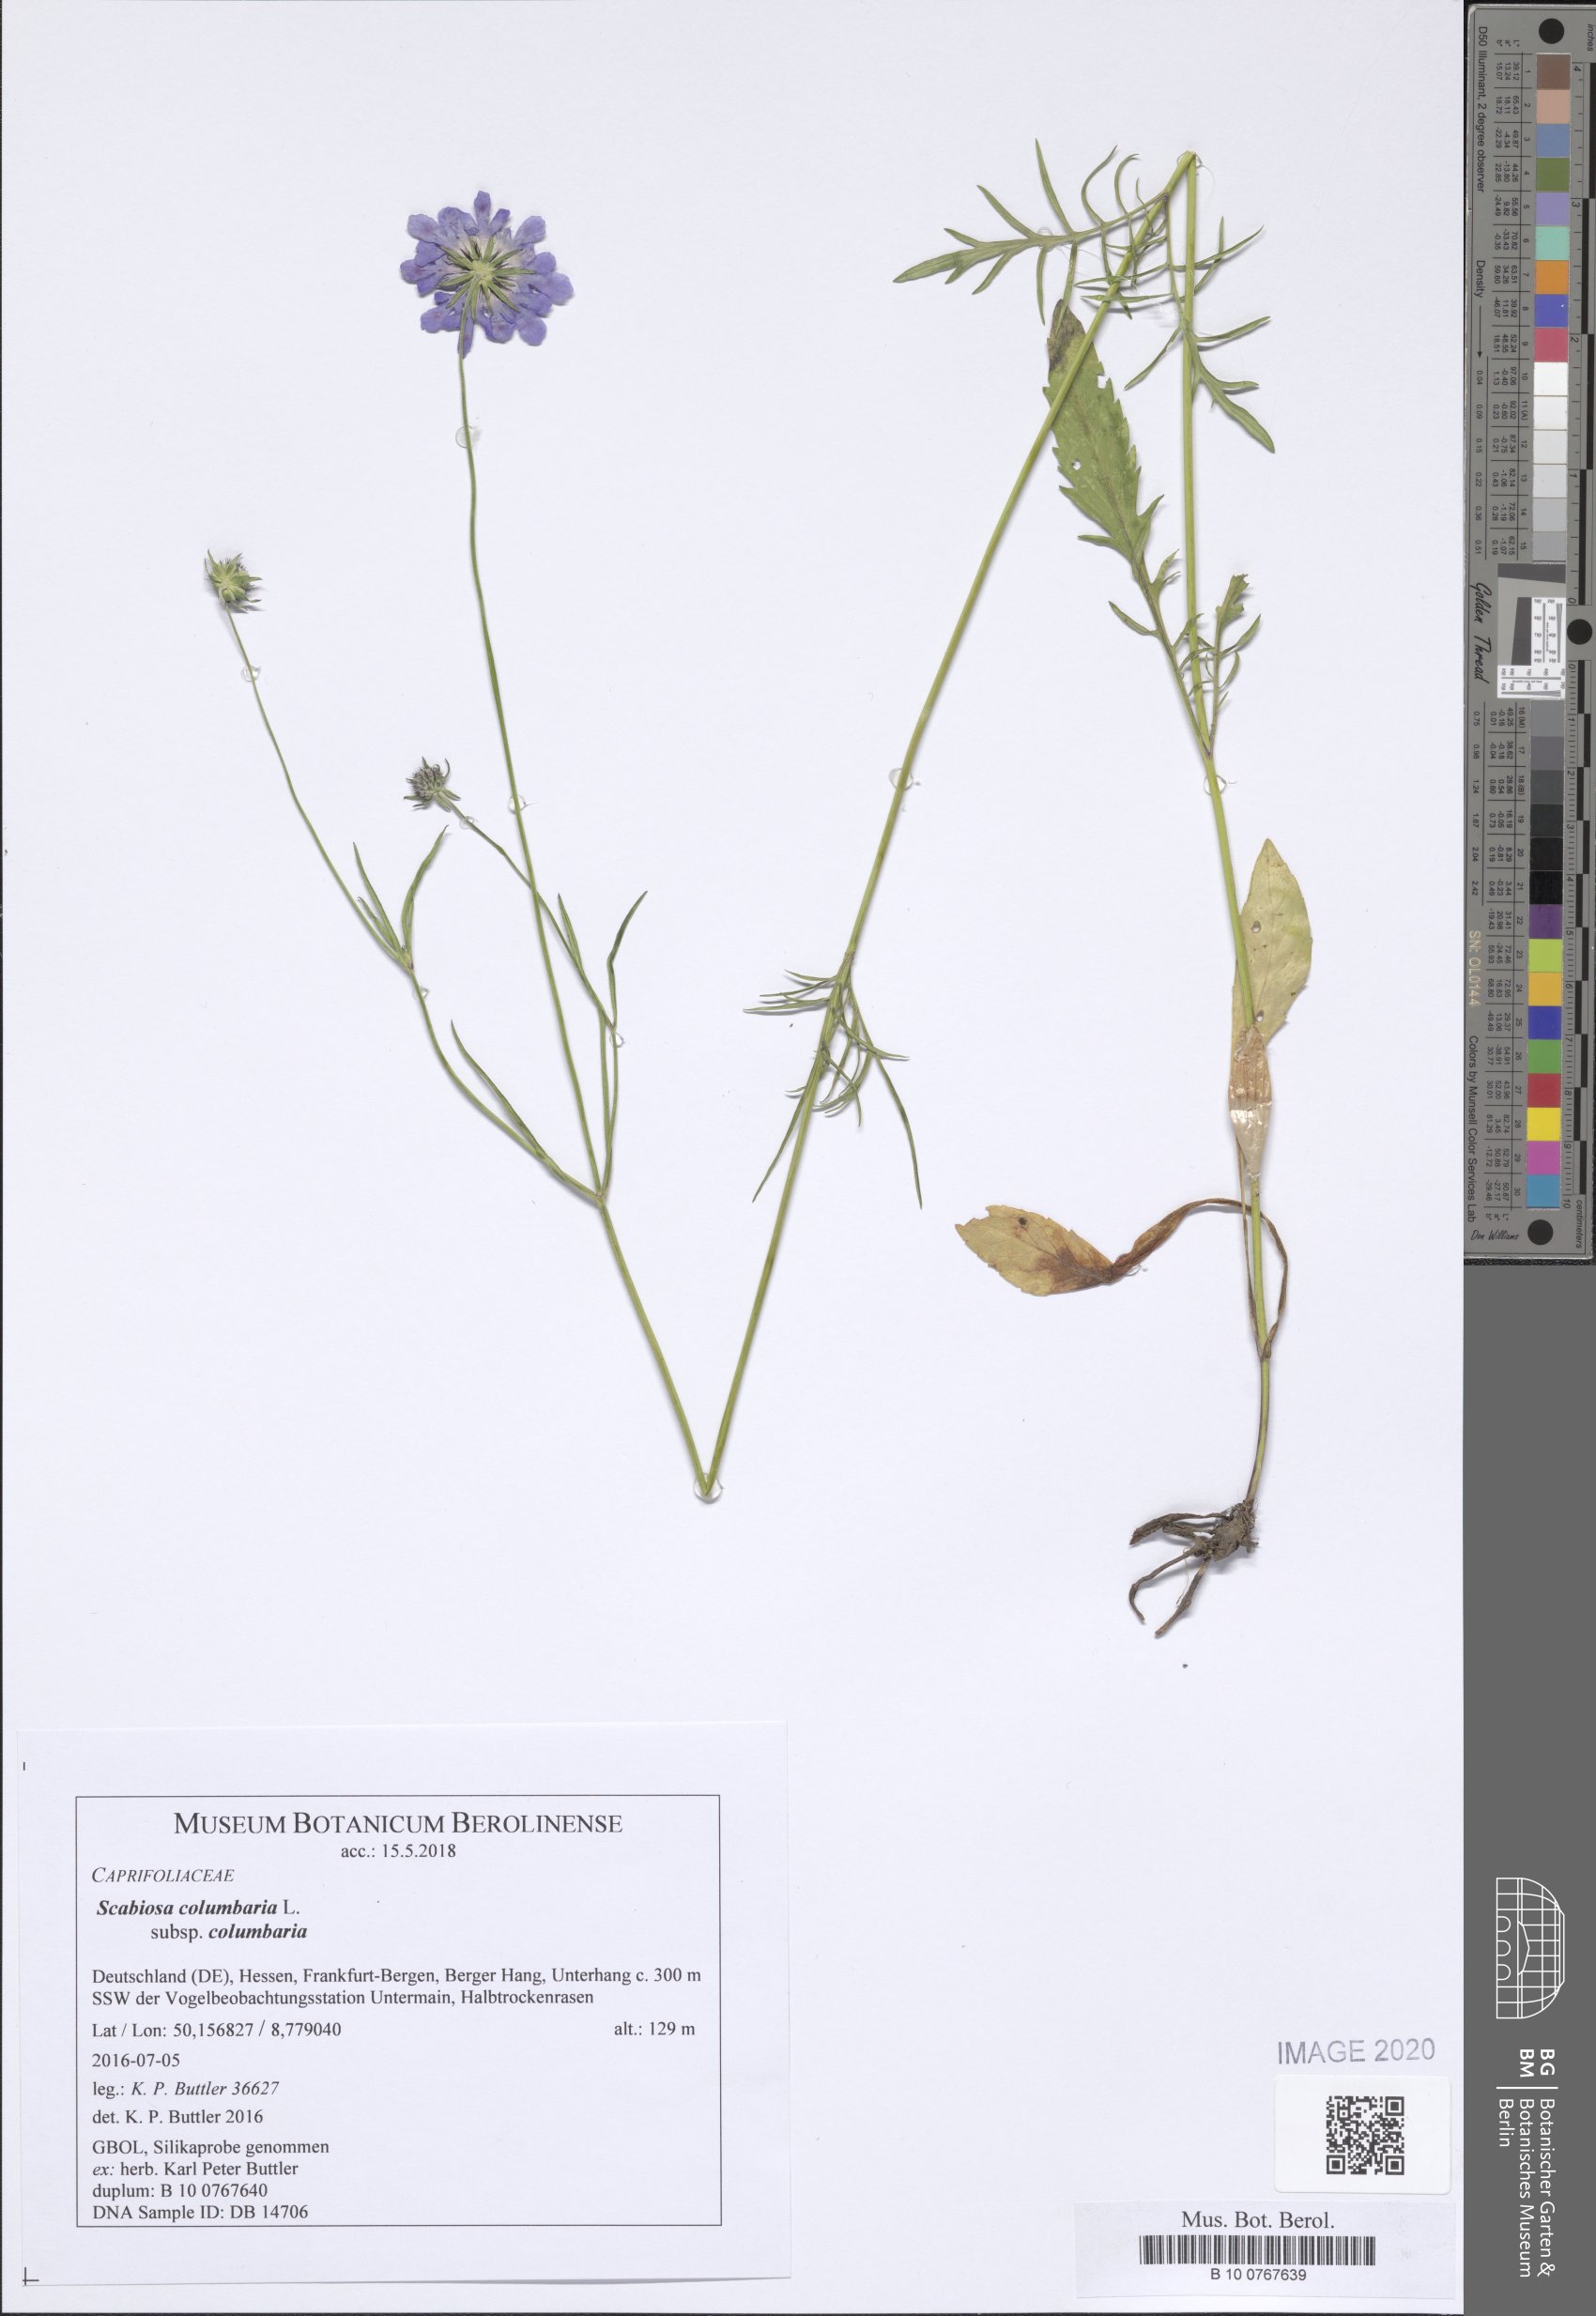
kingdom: Plantae
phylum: Tracheophyta
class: Magnoliopsida
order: Dipsacales
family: Caprifoliaceae
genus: Scabiosa
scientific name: Scabiosa columbaria
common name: Small scabious
